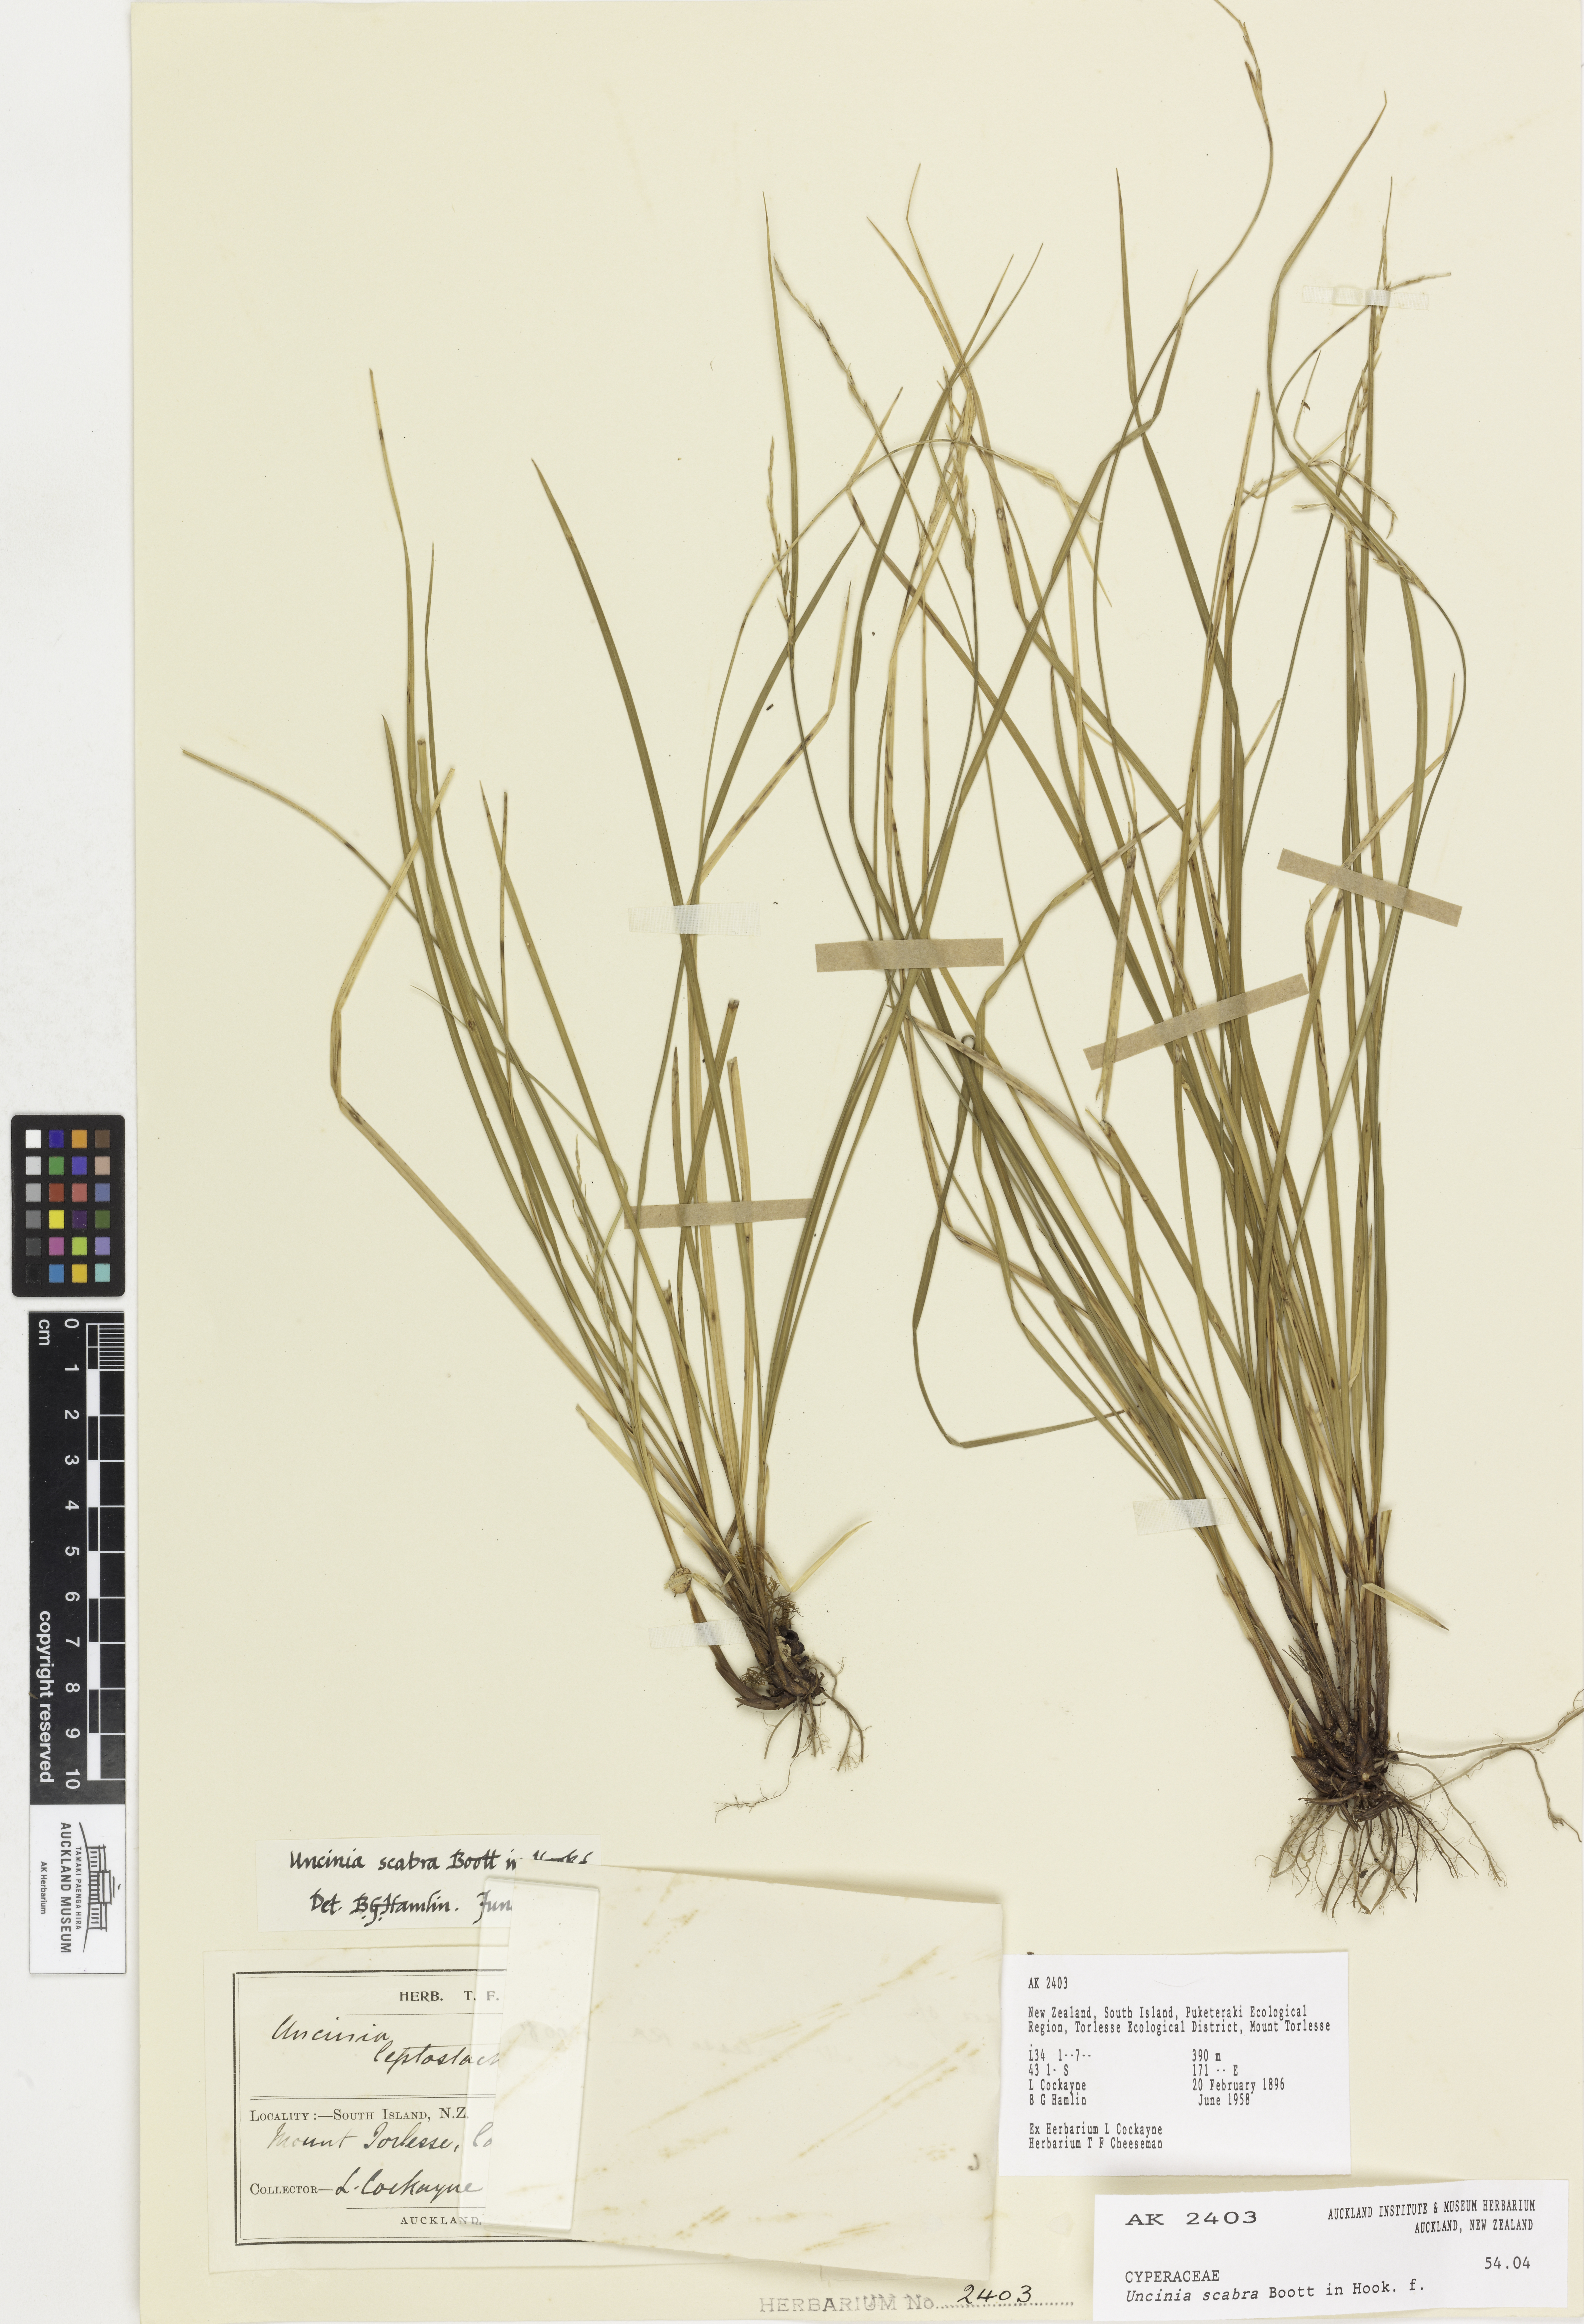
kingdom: Plantae
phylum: Tracheophyta
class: Liliopsida
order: Poales
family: Cyperaceae
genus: Carex
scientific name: Carex healyi
